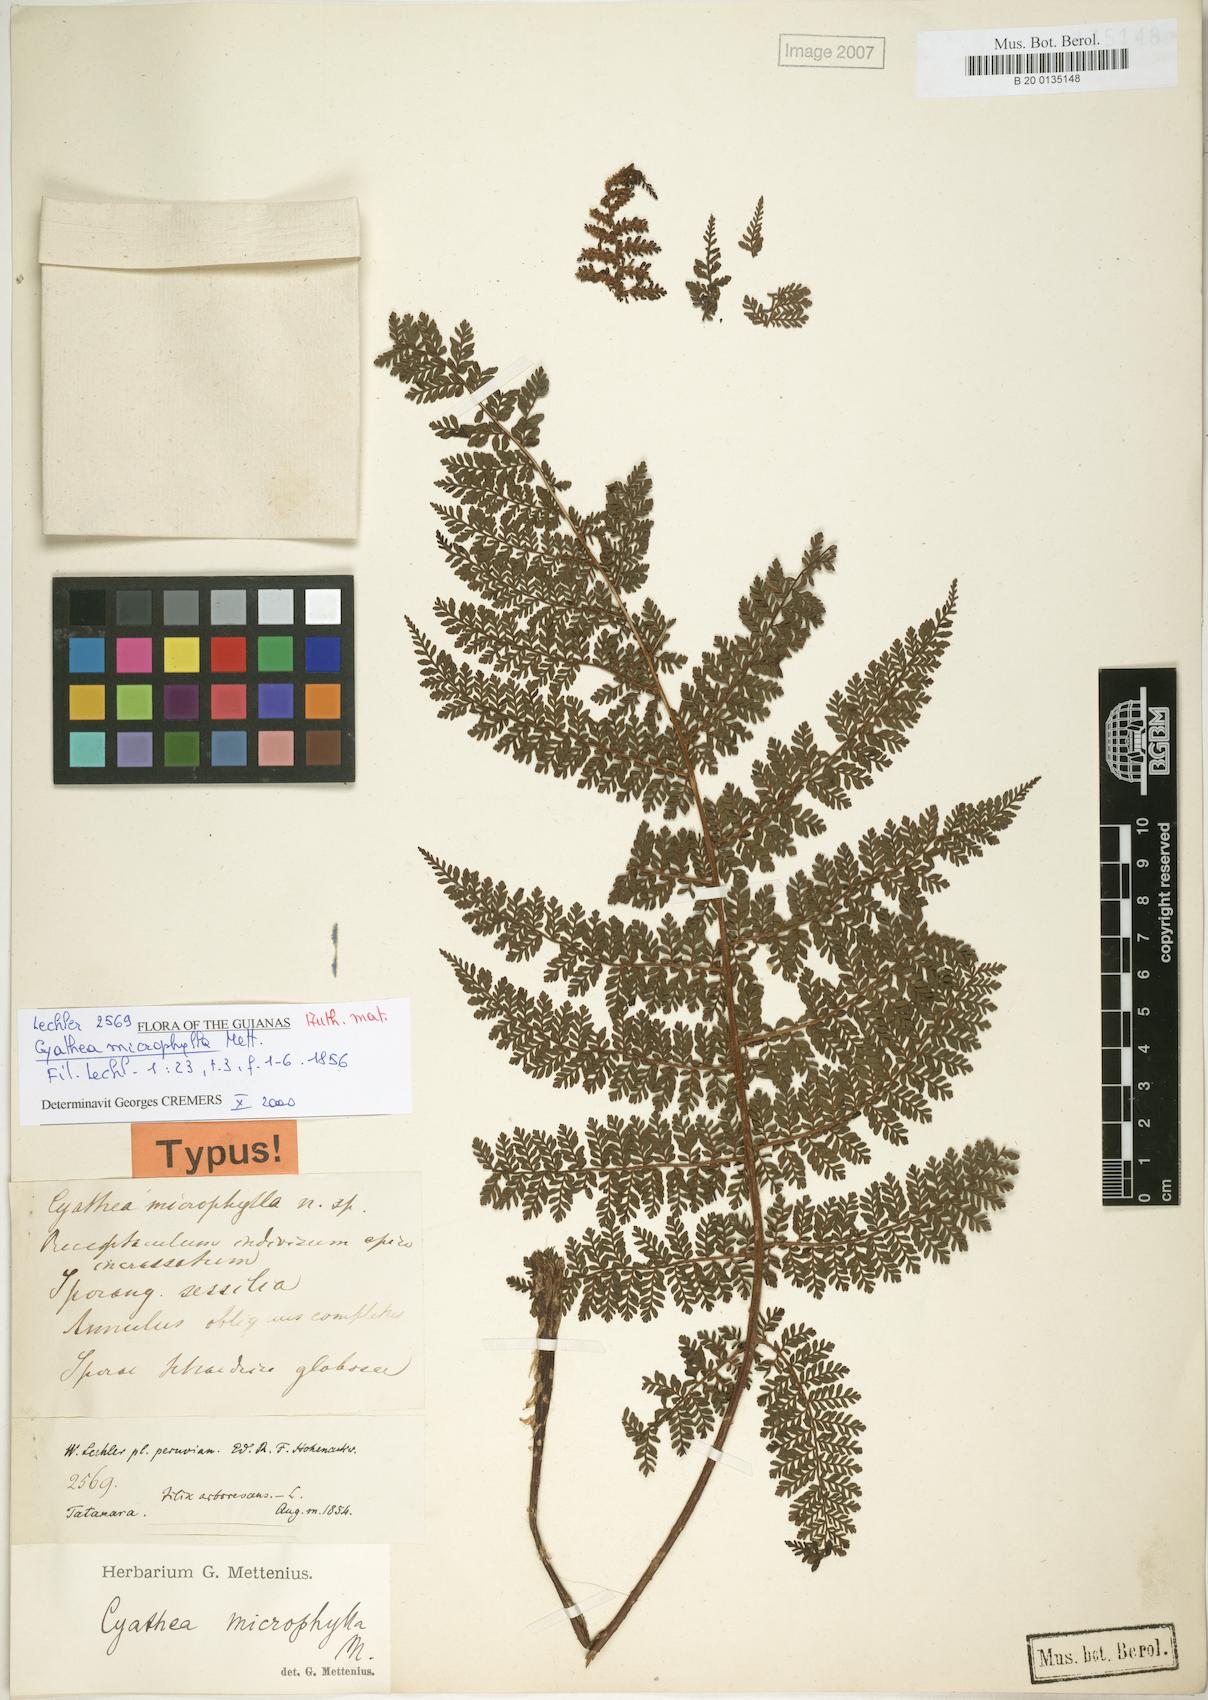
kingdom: Plantae
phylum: Tracheophyta
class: Polypodiopsida
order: Cyatheales
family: Cyatheaceae
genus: Cyathea
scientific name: Cyathea microphylla
